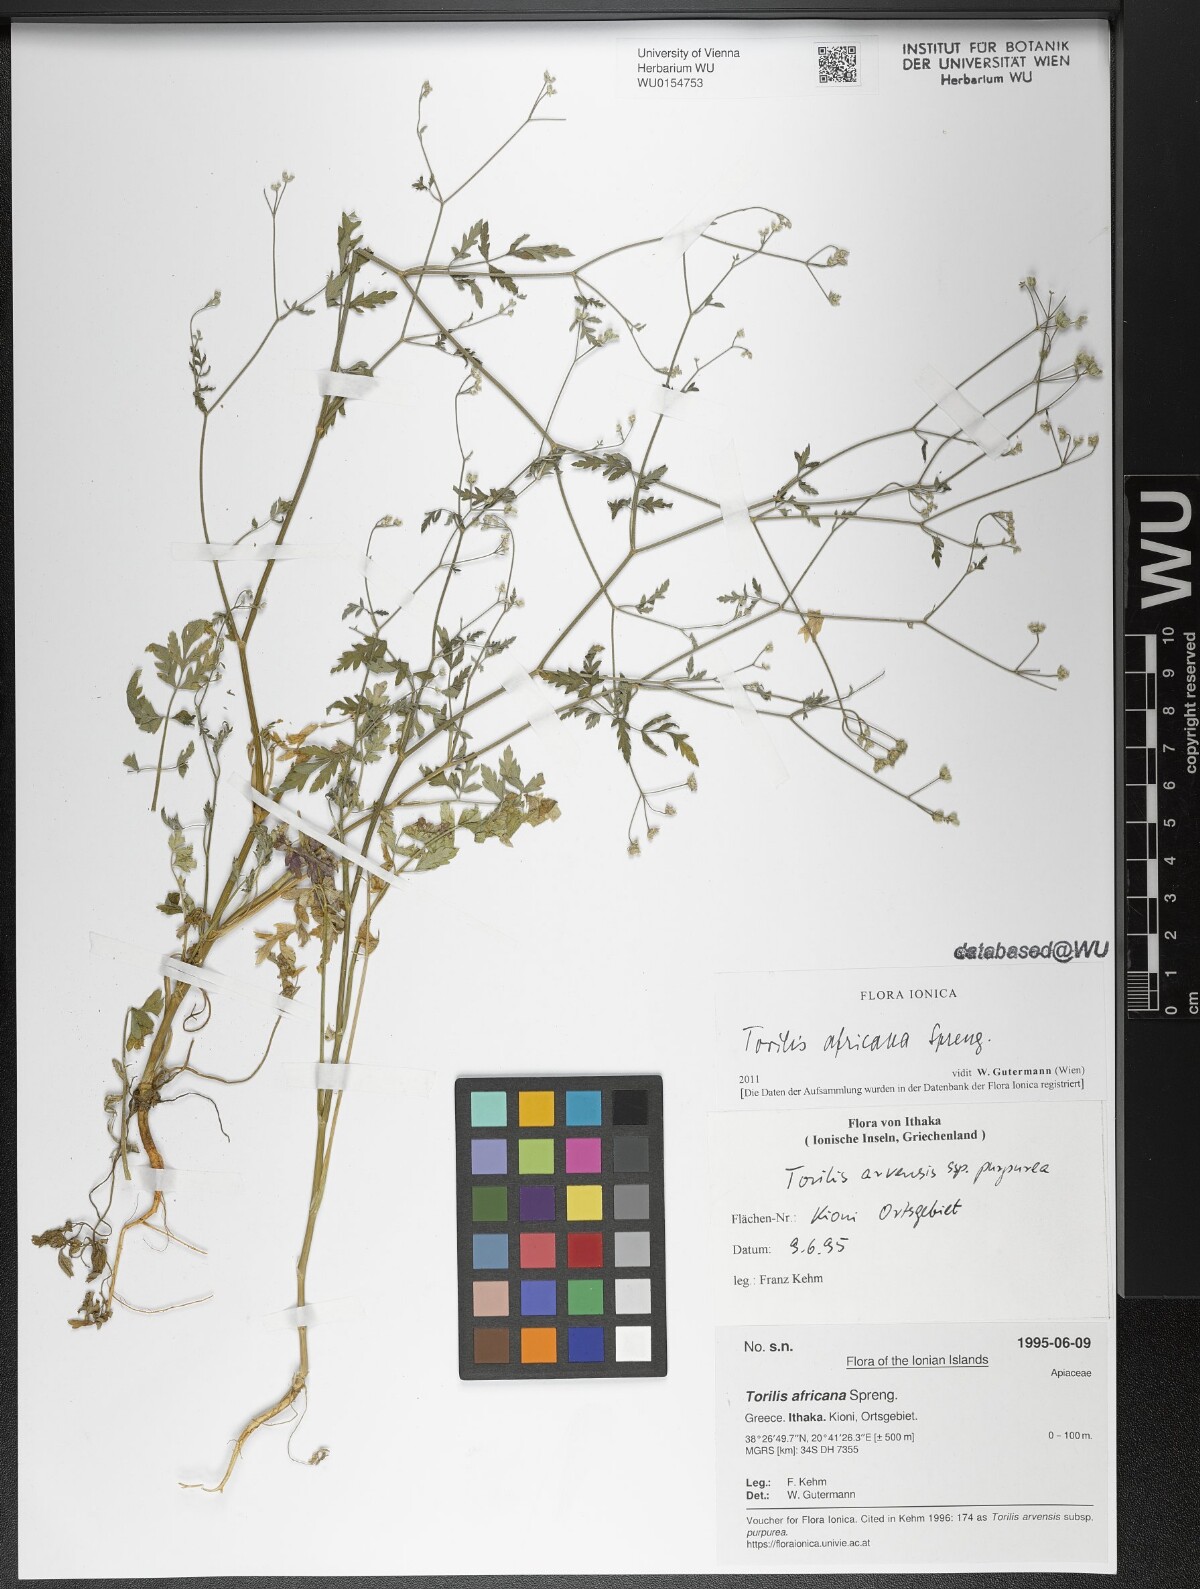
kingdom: Plantae
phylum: Tracheophyta
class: Magnoliopsida
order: Apiales
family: Apiaceae
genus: Torilis
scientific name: Torilis africana
